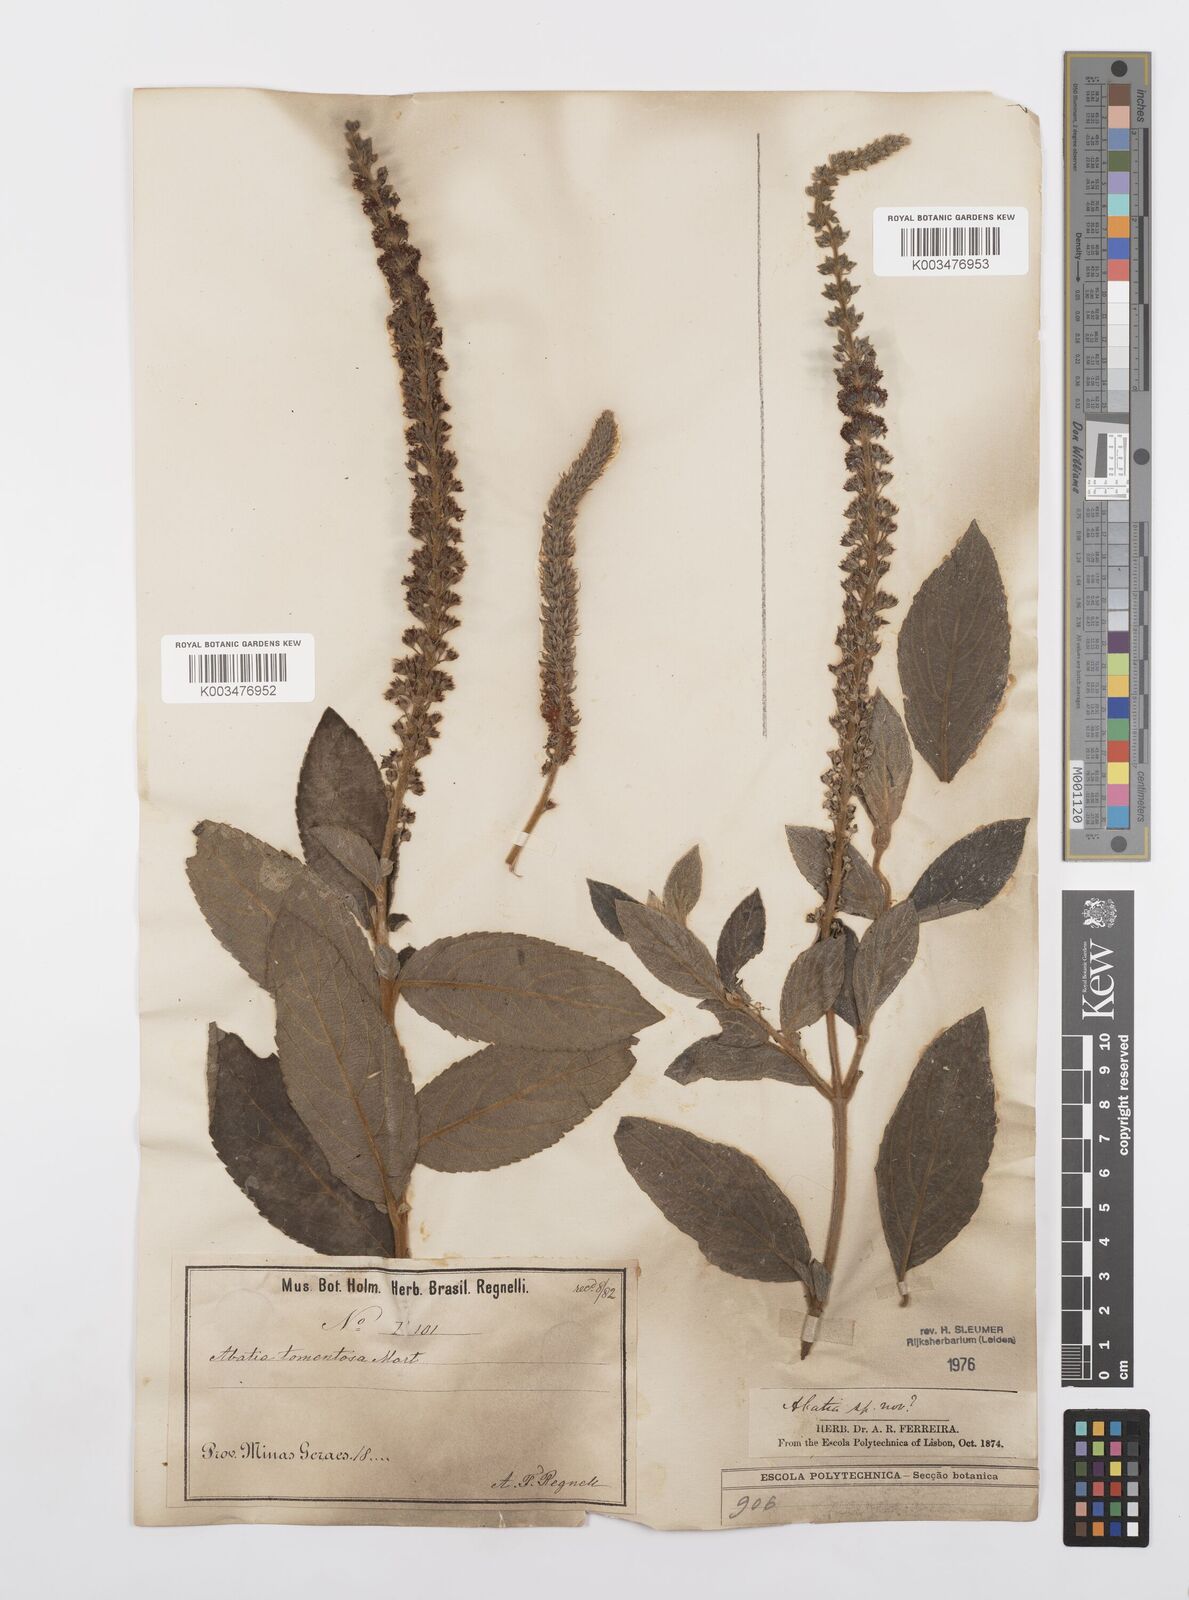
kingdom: Plantae
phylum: Tracheophyta
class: Magnoliopsida
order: Malpighiales
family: Salicaceae
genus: Abatia
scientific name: Abatia americana
